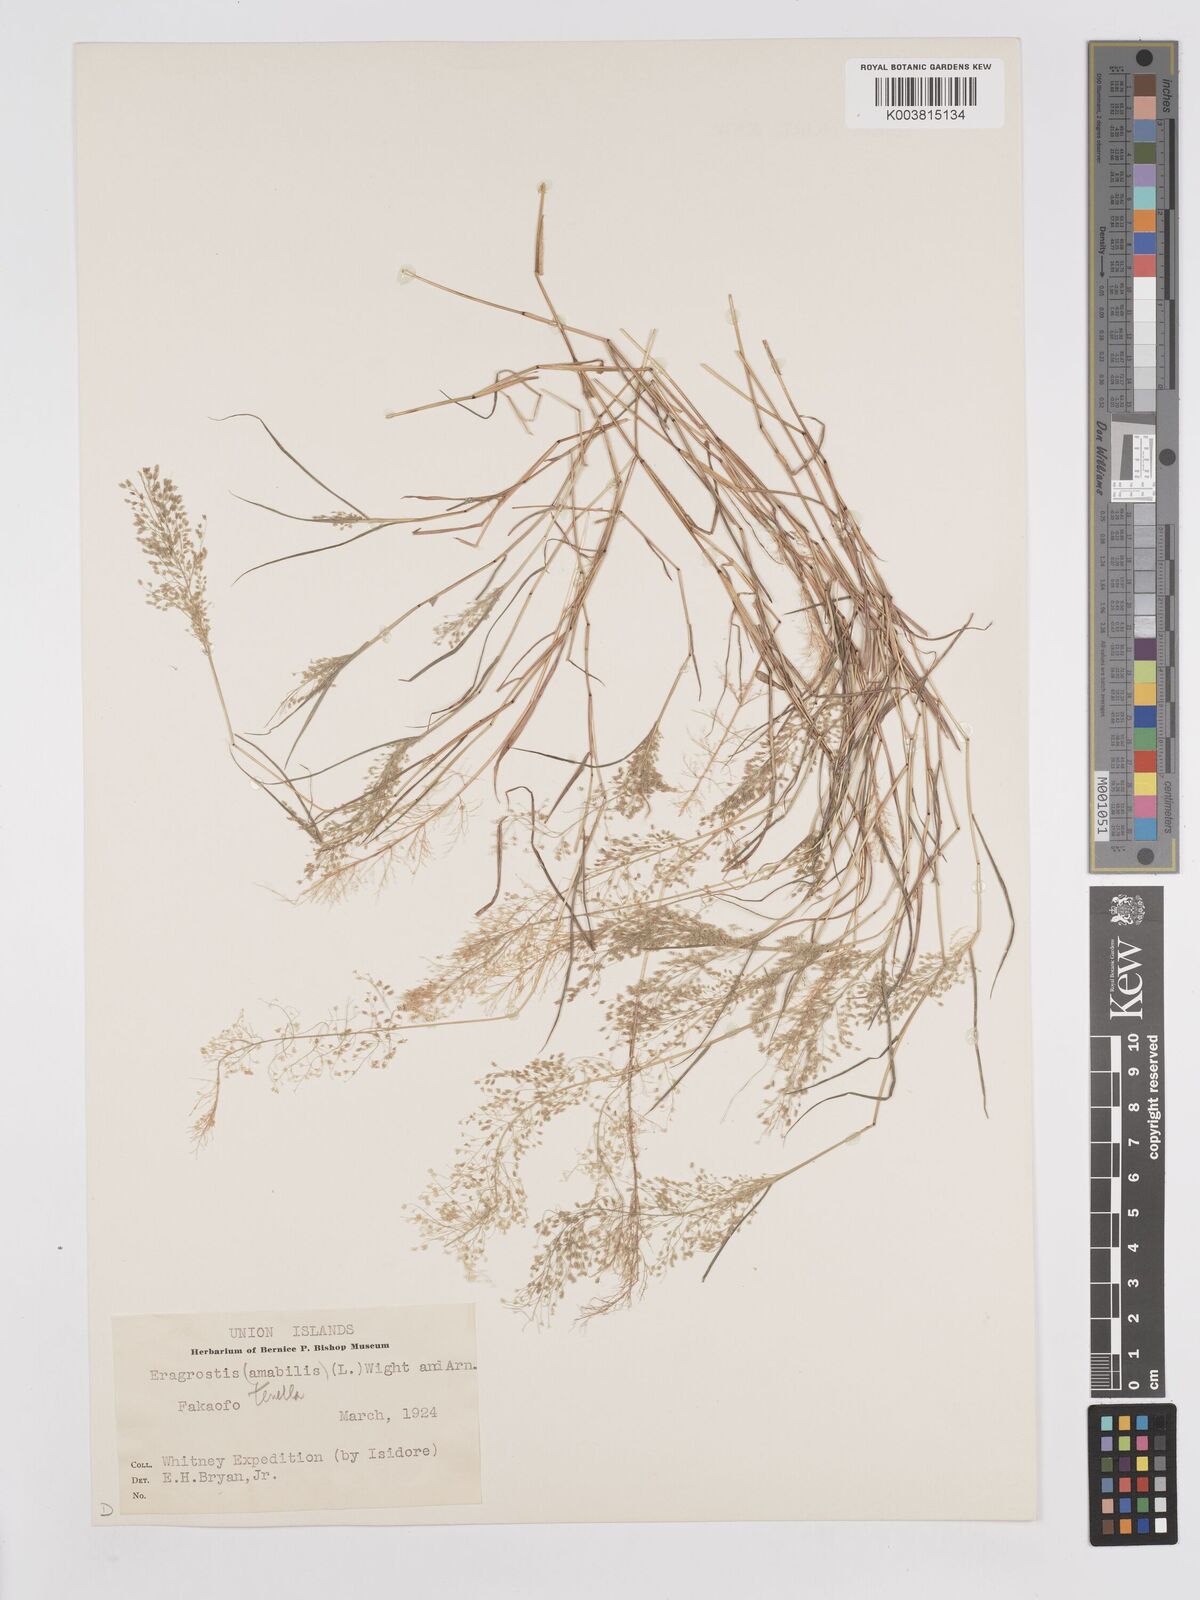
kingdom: Plantae
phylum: Tracheophyta
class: Liliopsida
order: Poales
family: Poaceae
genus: Eragrostis
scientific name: Eragrostis tenella
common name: Japanese lovegrass
